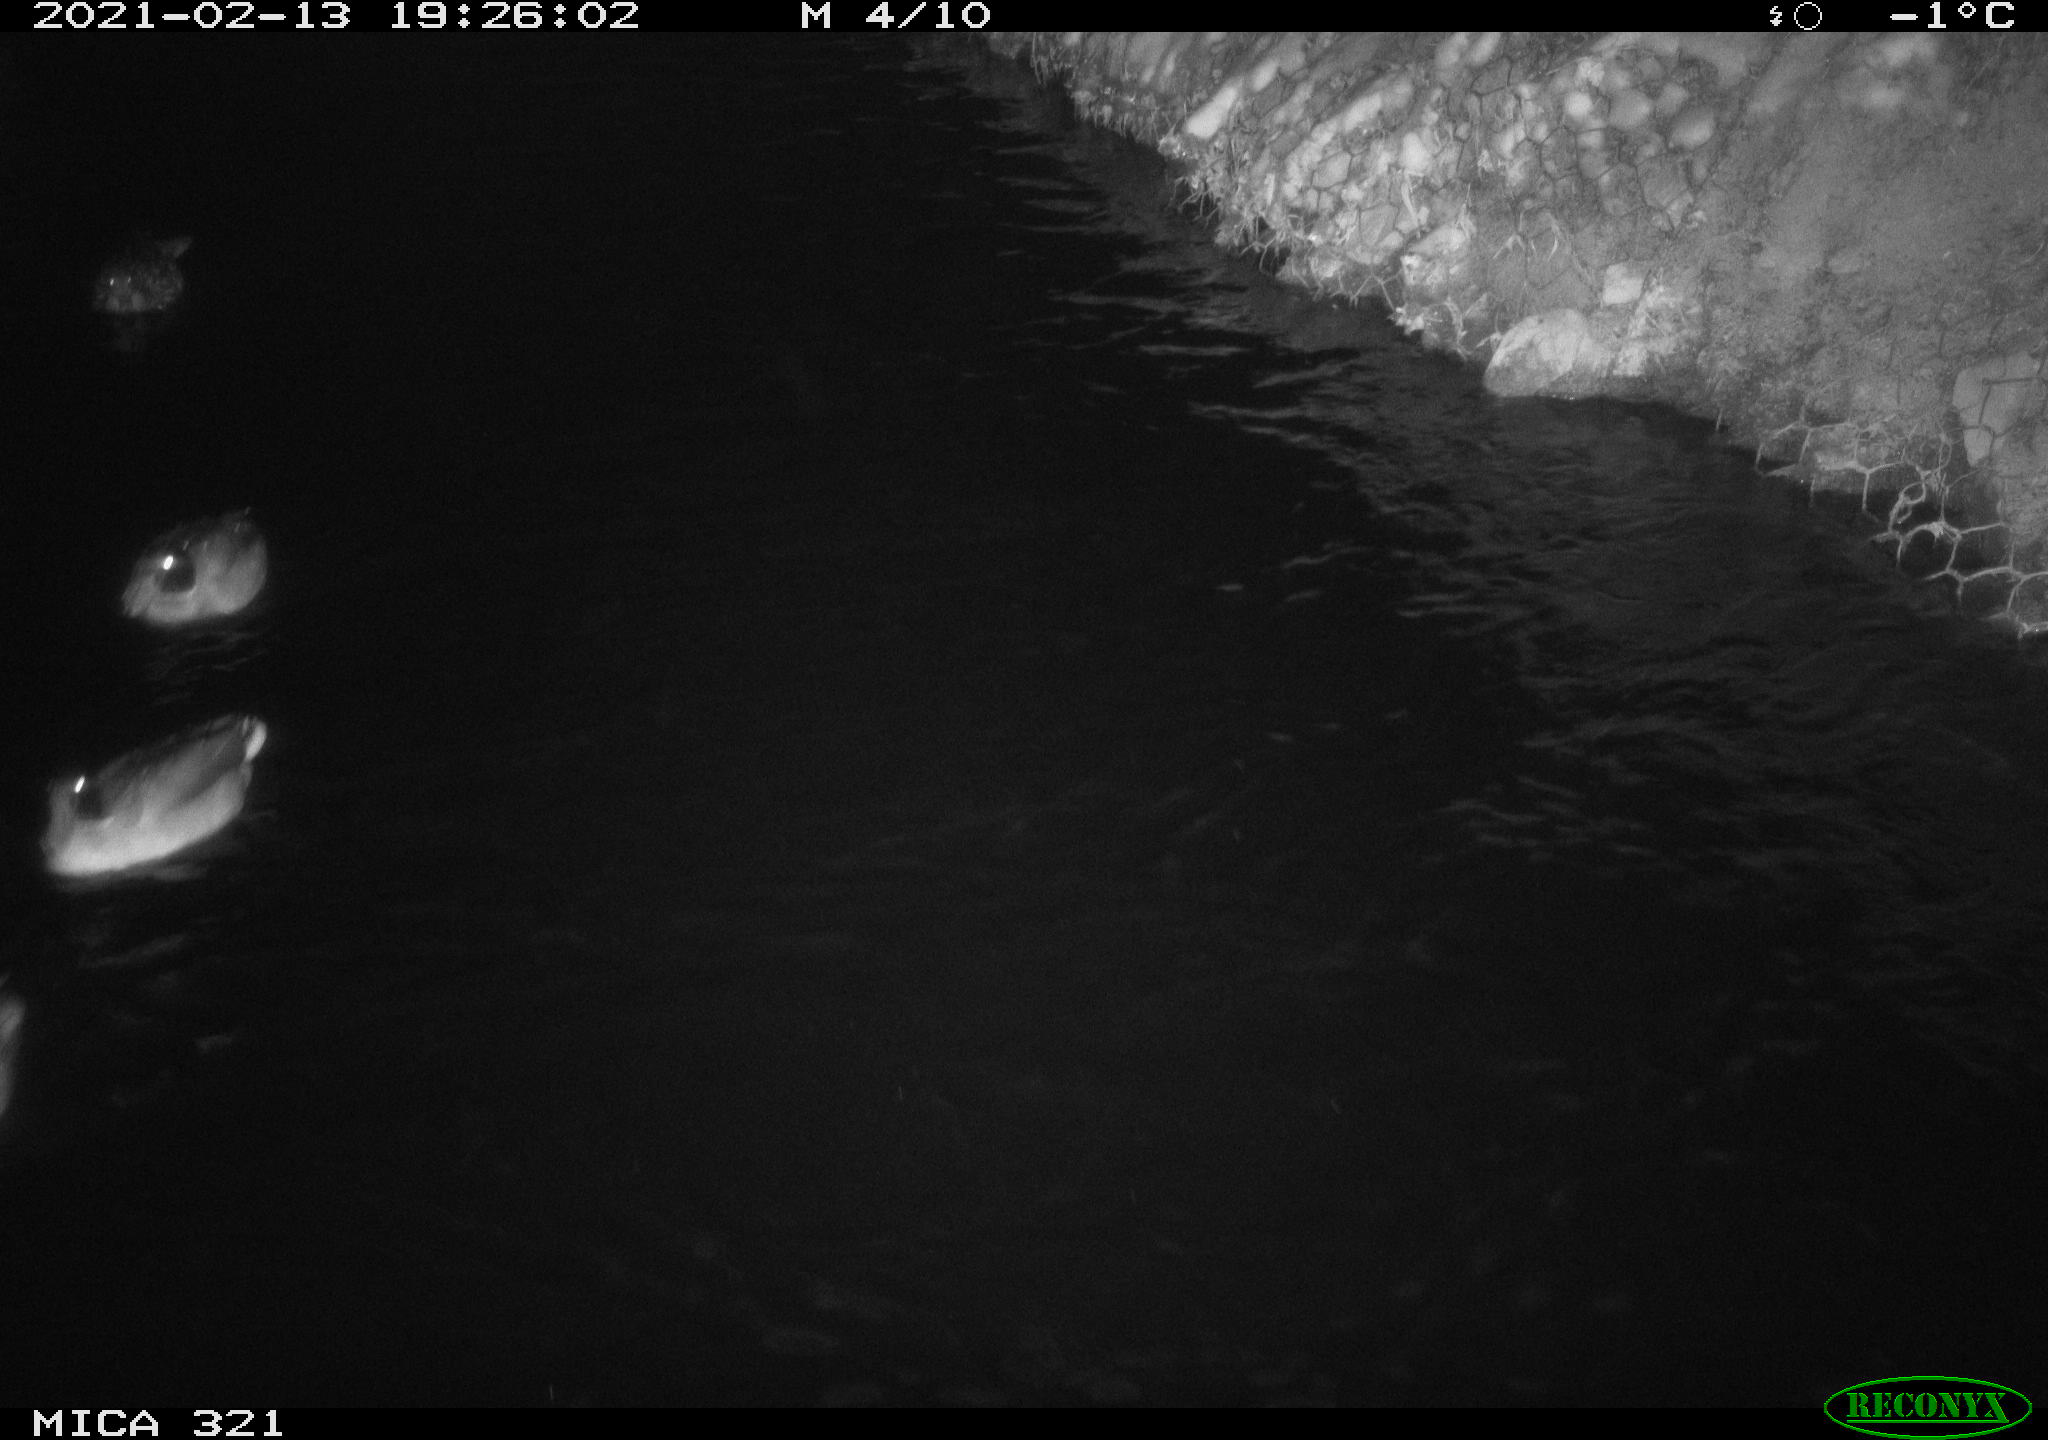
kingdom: Animalia
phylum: Chordata
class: Aves
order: Anseriformes
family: Anatidae
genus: Anas
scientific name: Anas platyrhynchos
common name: Mallard
